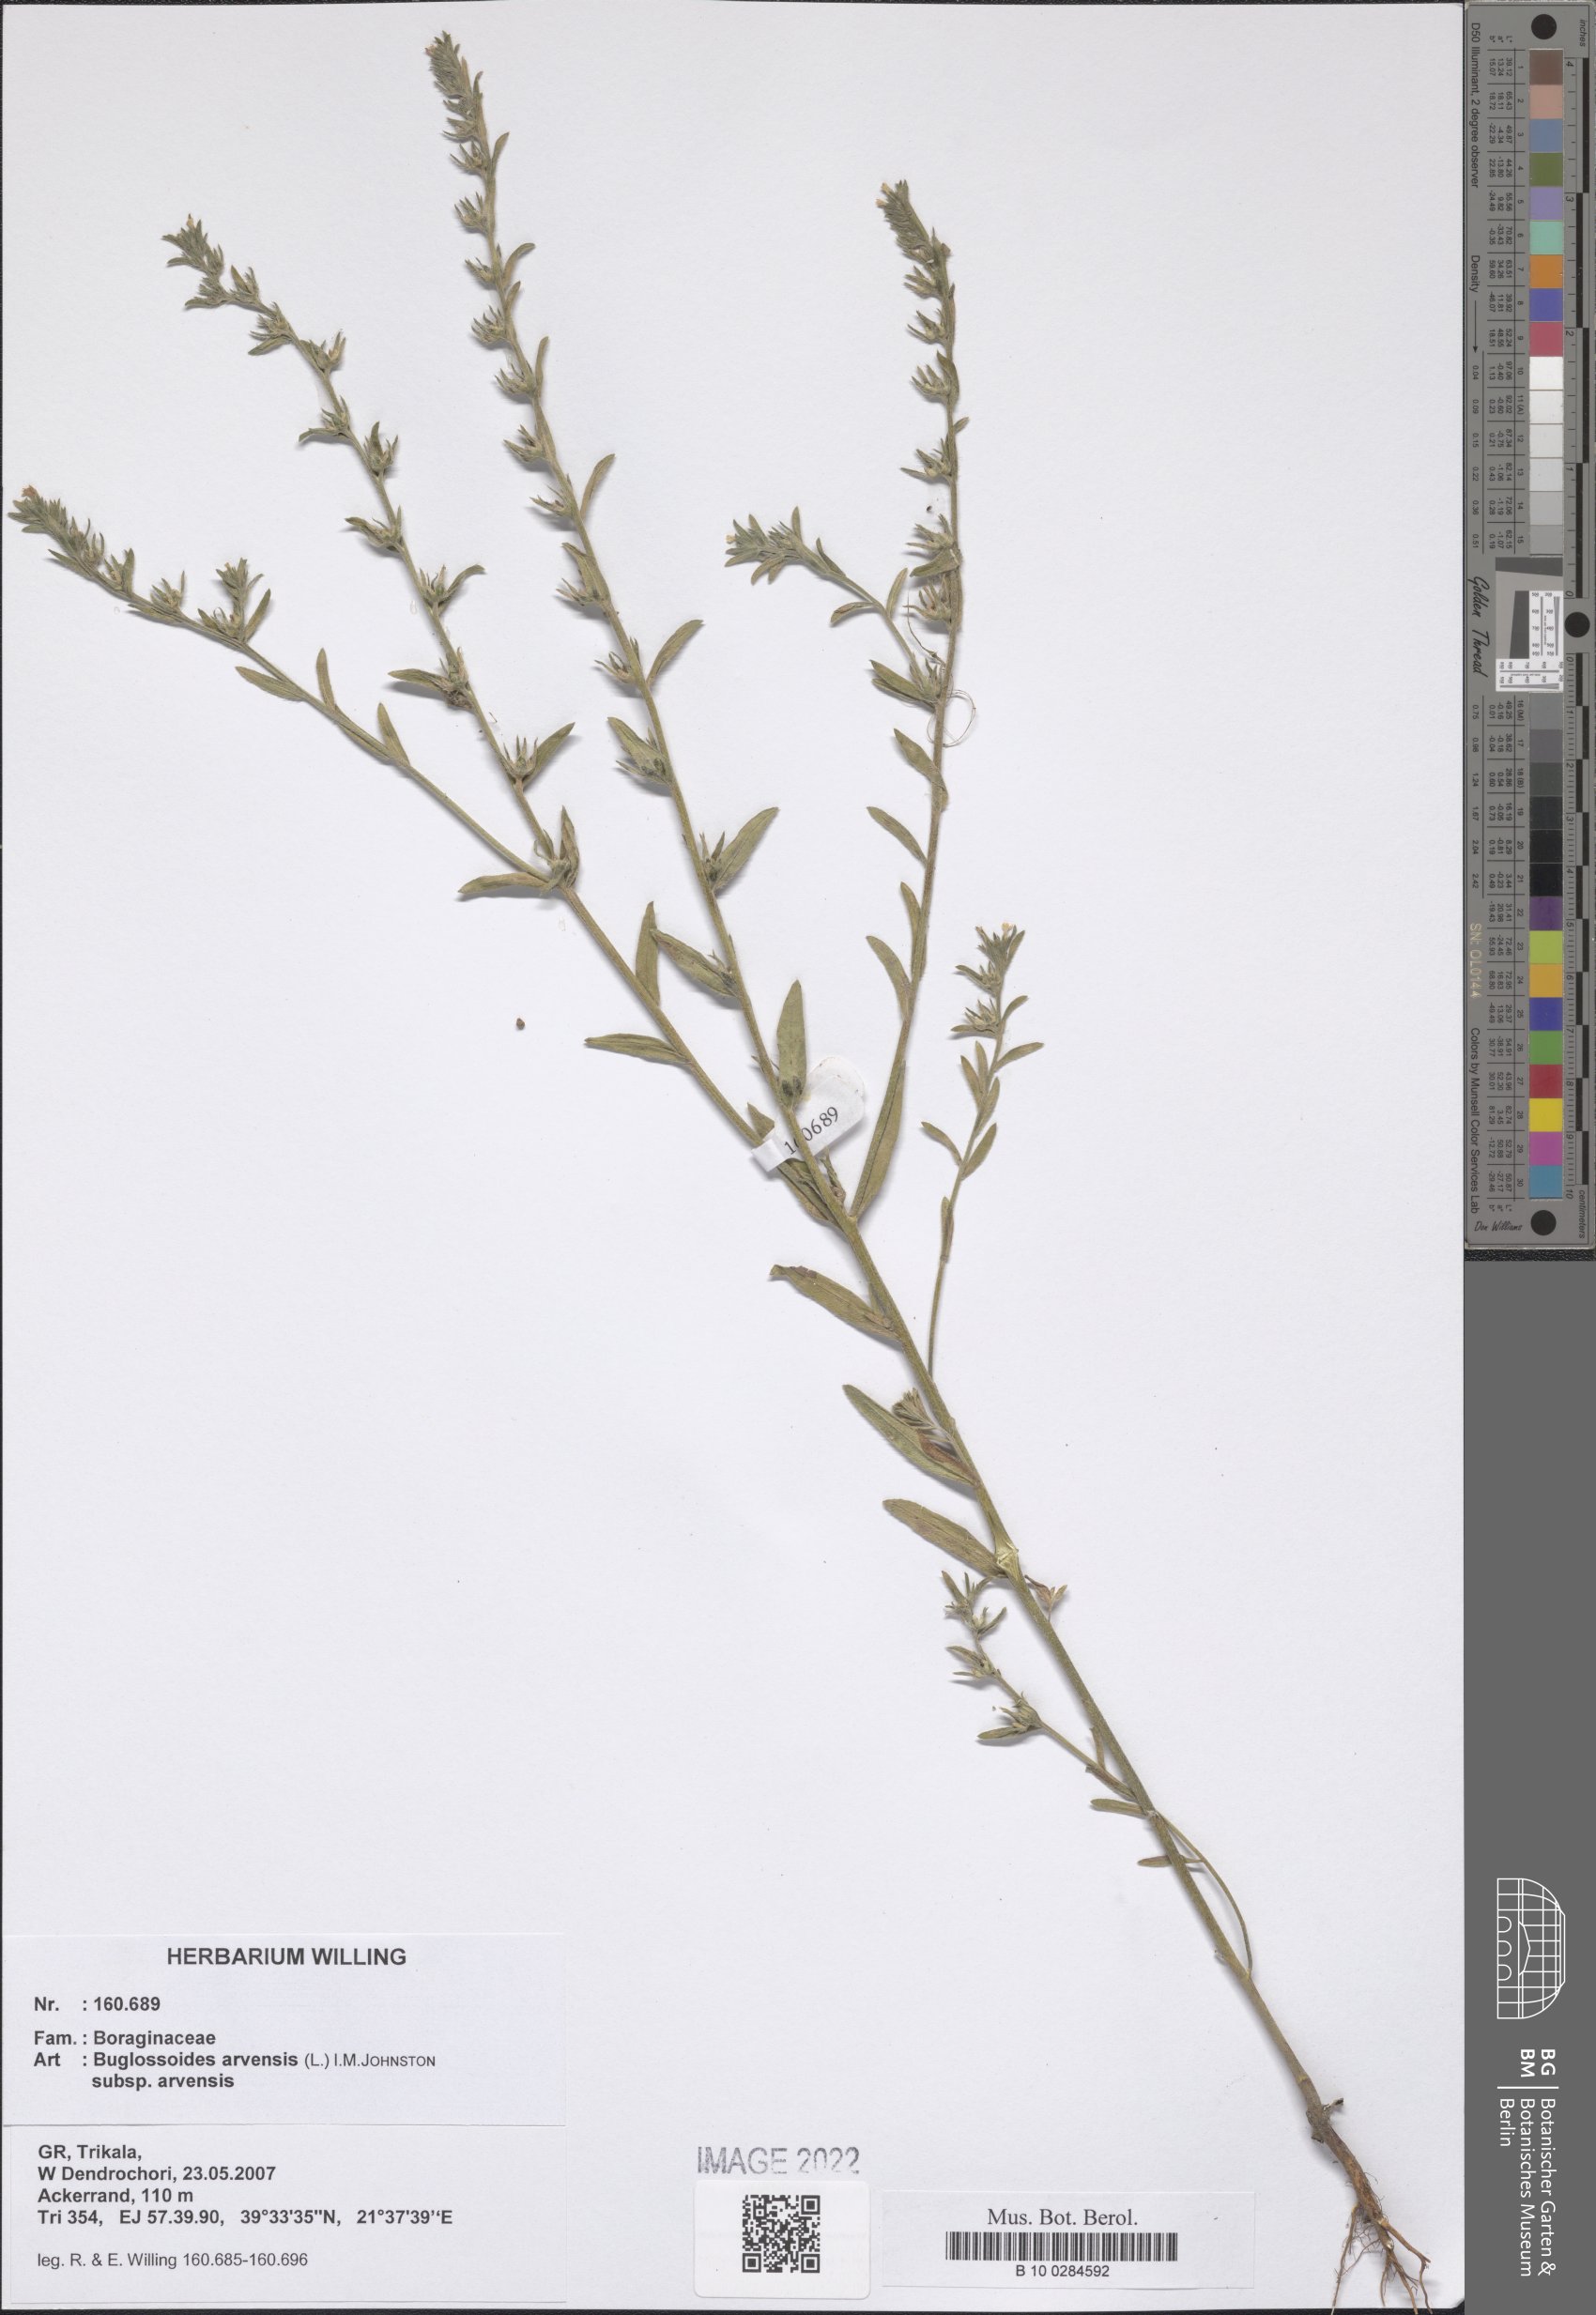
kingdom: Plantae
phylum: Tracheophyta
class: Magnoliopsida
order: Boraginales
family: Boraginaceae
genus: Buglossoides
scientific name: Buglossoides arvensis
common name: Corn gromwell
